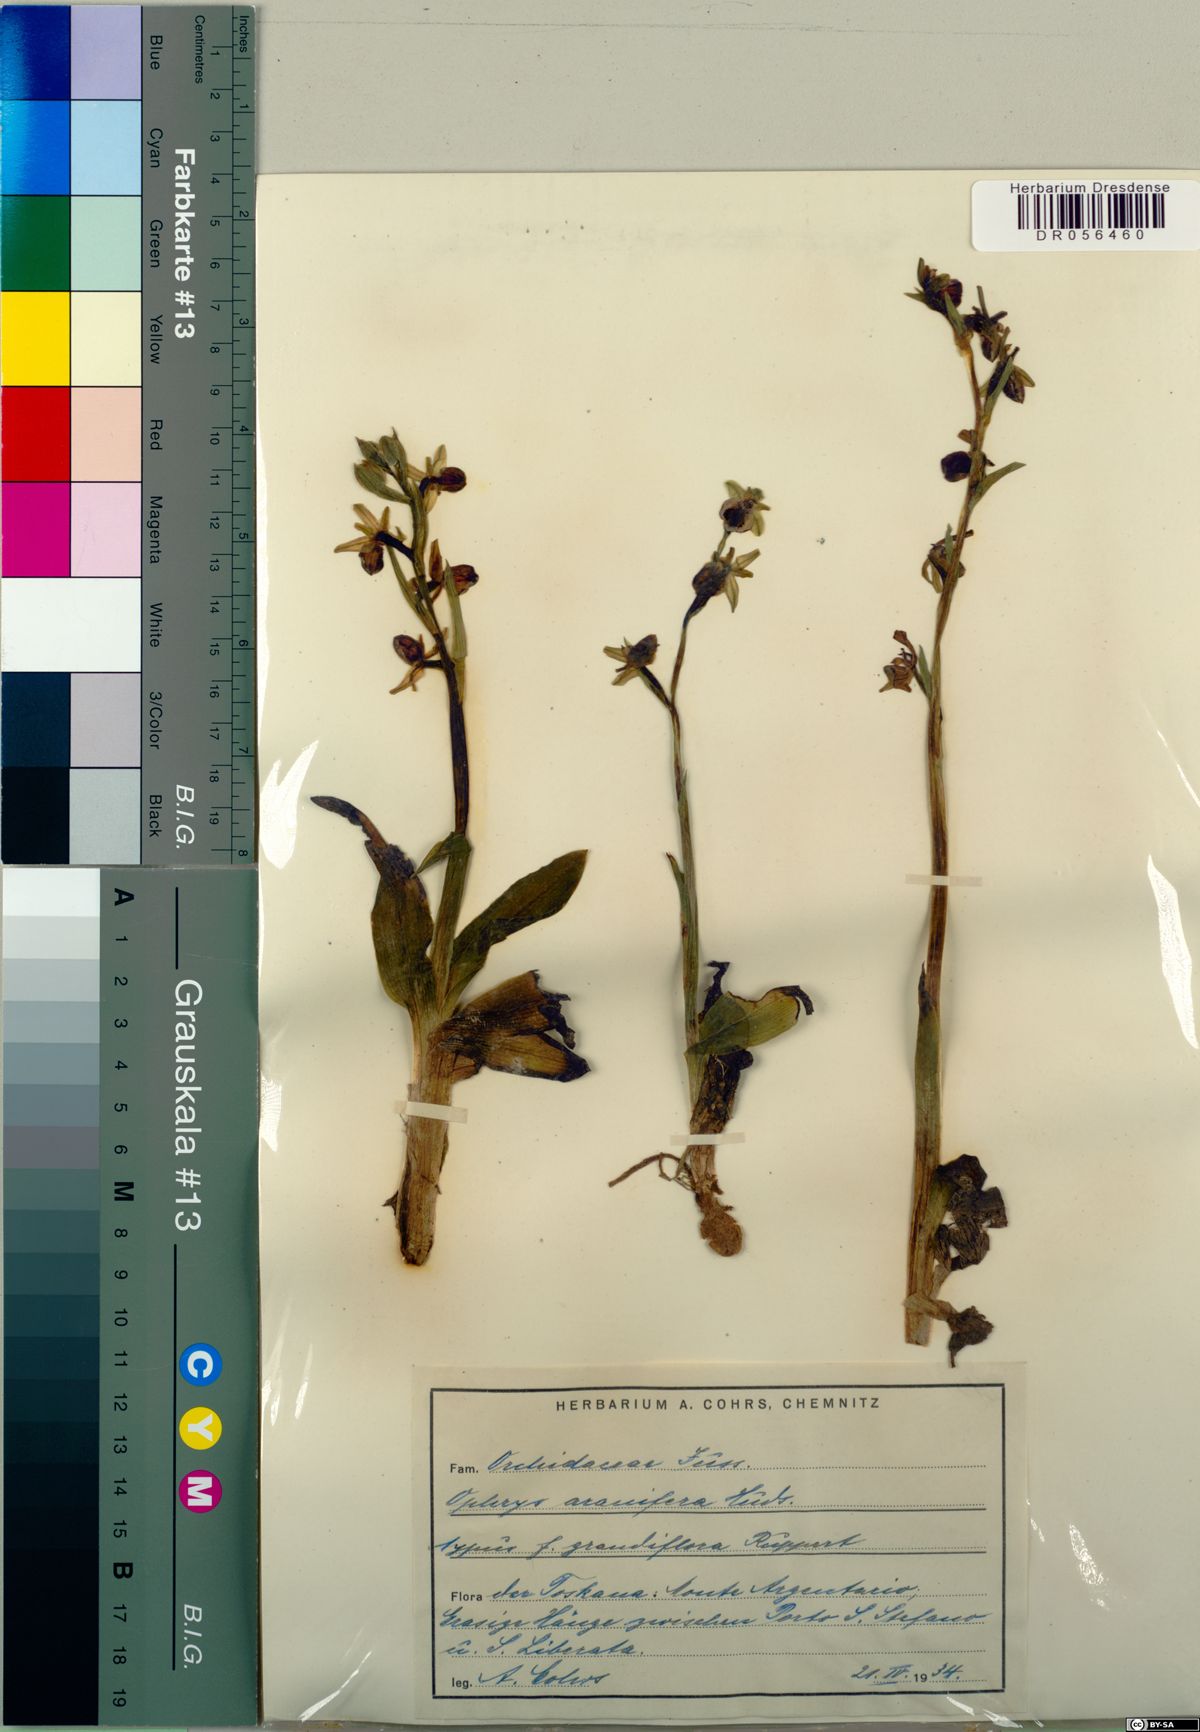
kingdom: Plantae
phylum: Tracheophyta
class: Liliopsida
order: Asparagales
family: Orchidaceae
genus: Ophrys
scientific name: Ophrys sphegodes
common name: Early spider-orchid
